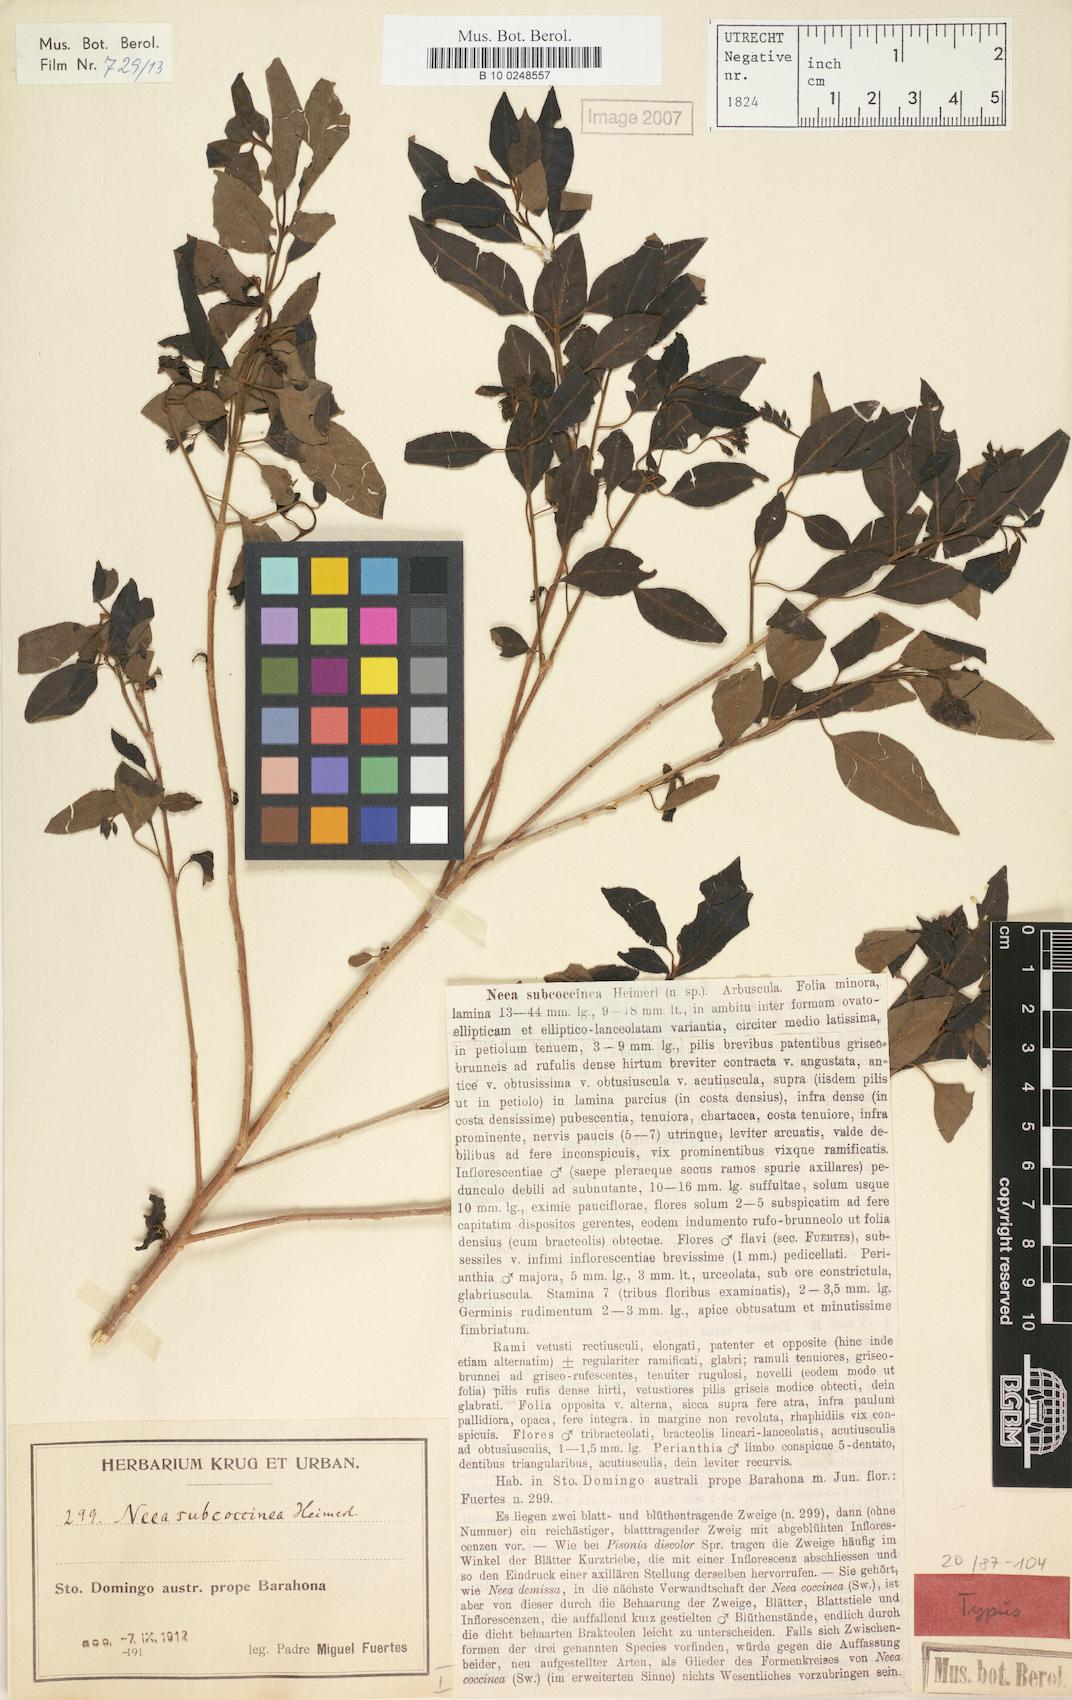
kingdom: Plantae
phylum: Tracheophyta
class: Magnoliopsida
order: Caryophyllales
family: Nyctaginaceae
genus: Neea
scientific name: Neea subcoccinea
